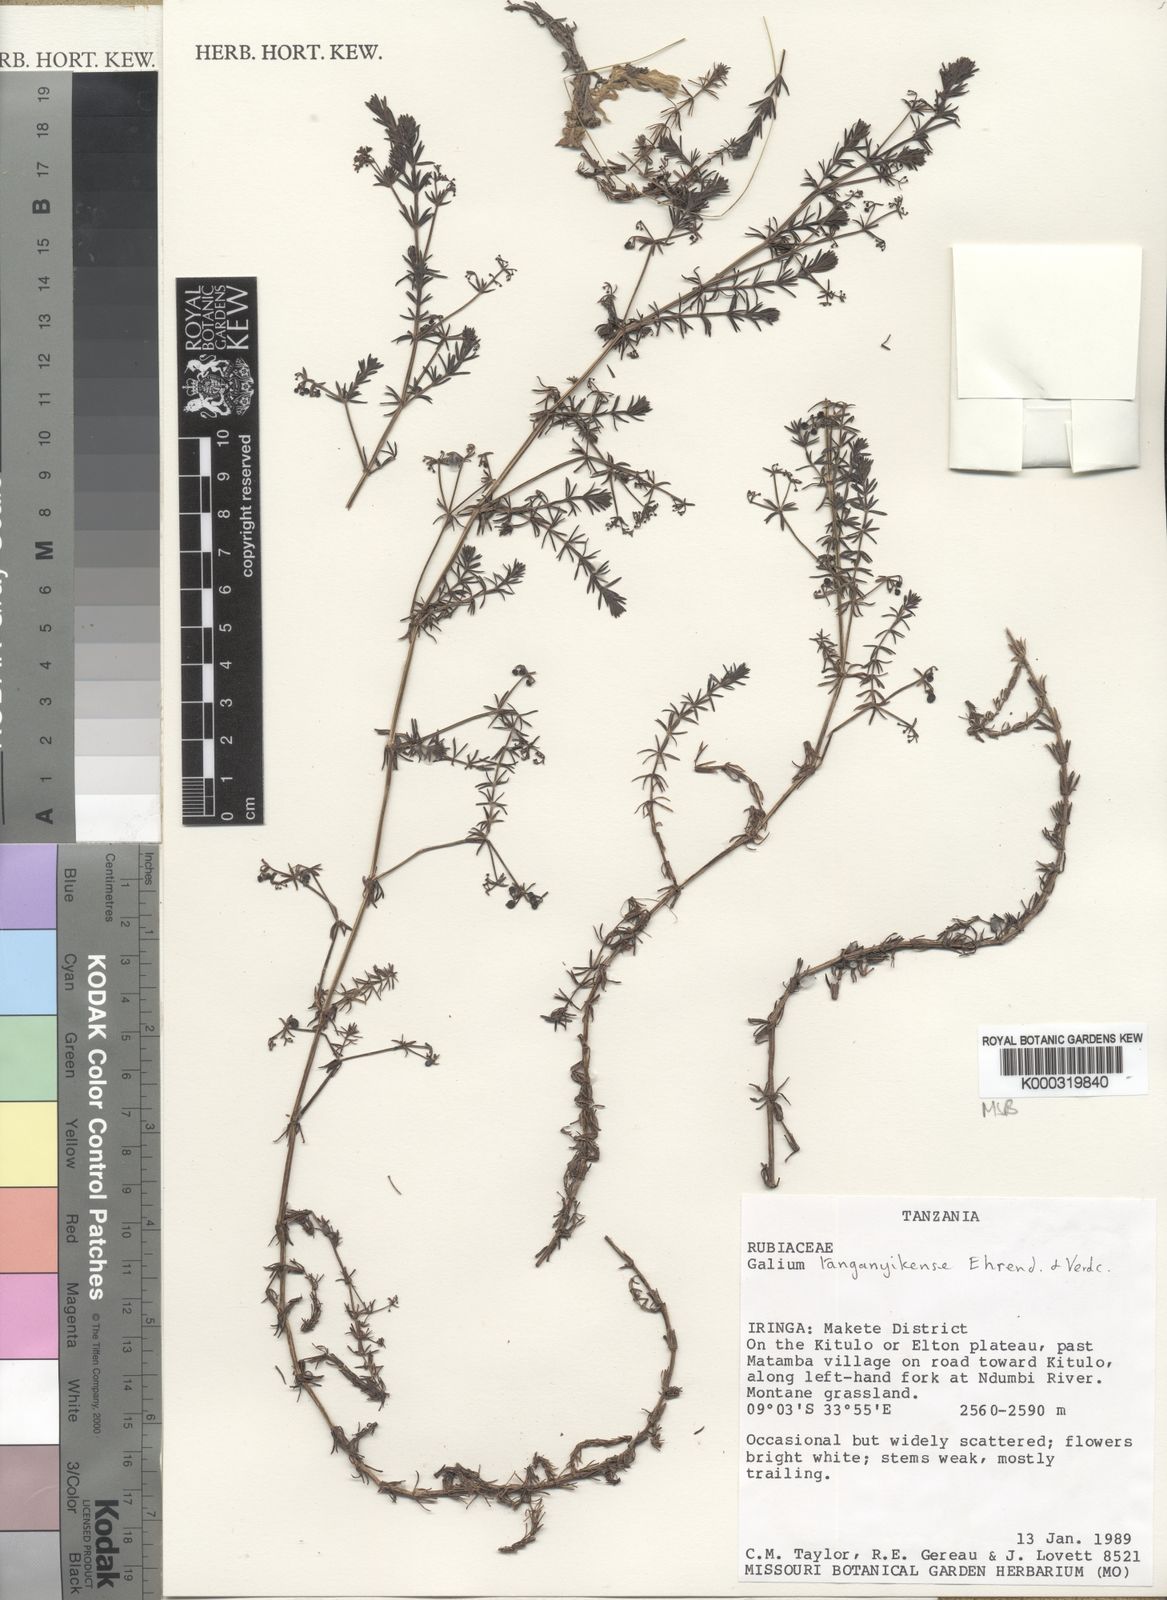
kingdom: Plantae
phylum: Tracheophyta
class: Magnoliopsida
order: Gentianales
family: Rubiaceae
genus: Galium
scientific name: Galium tanganyikense
